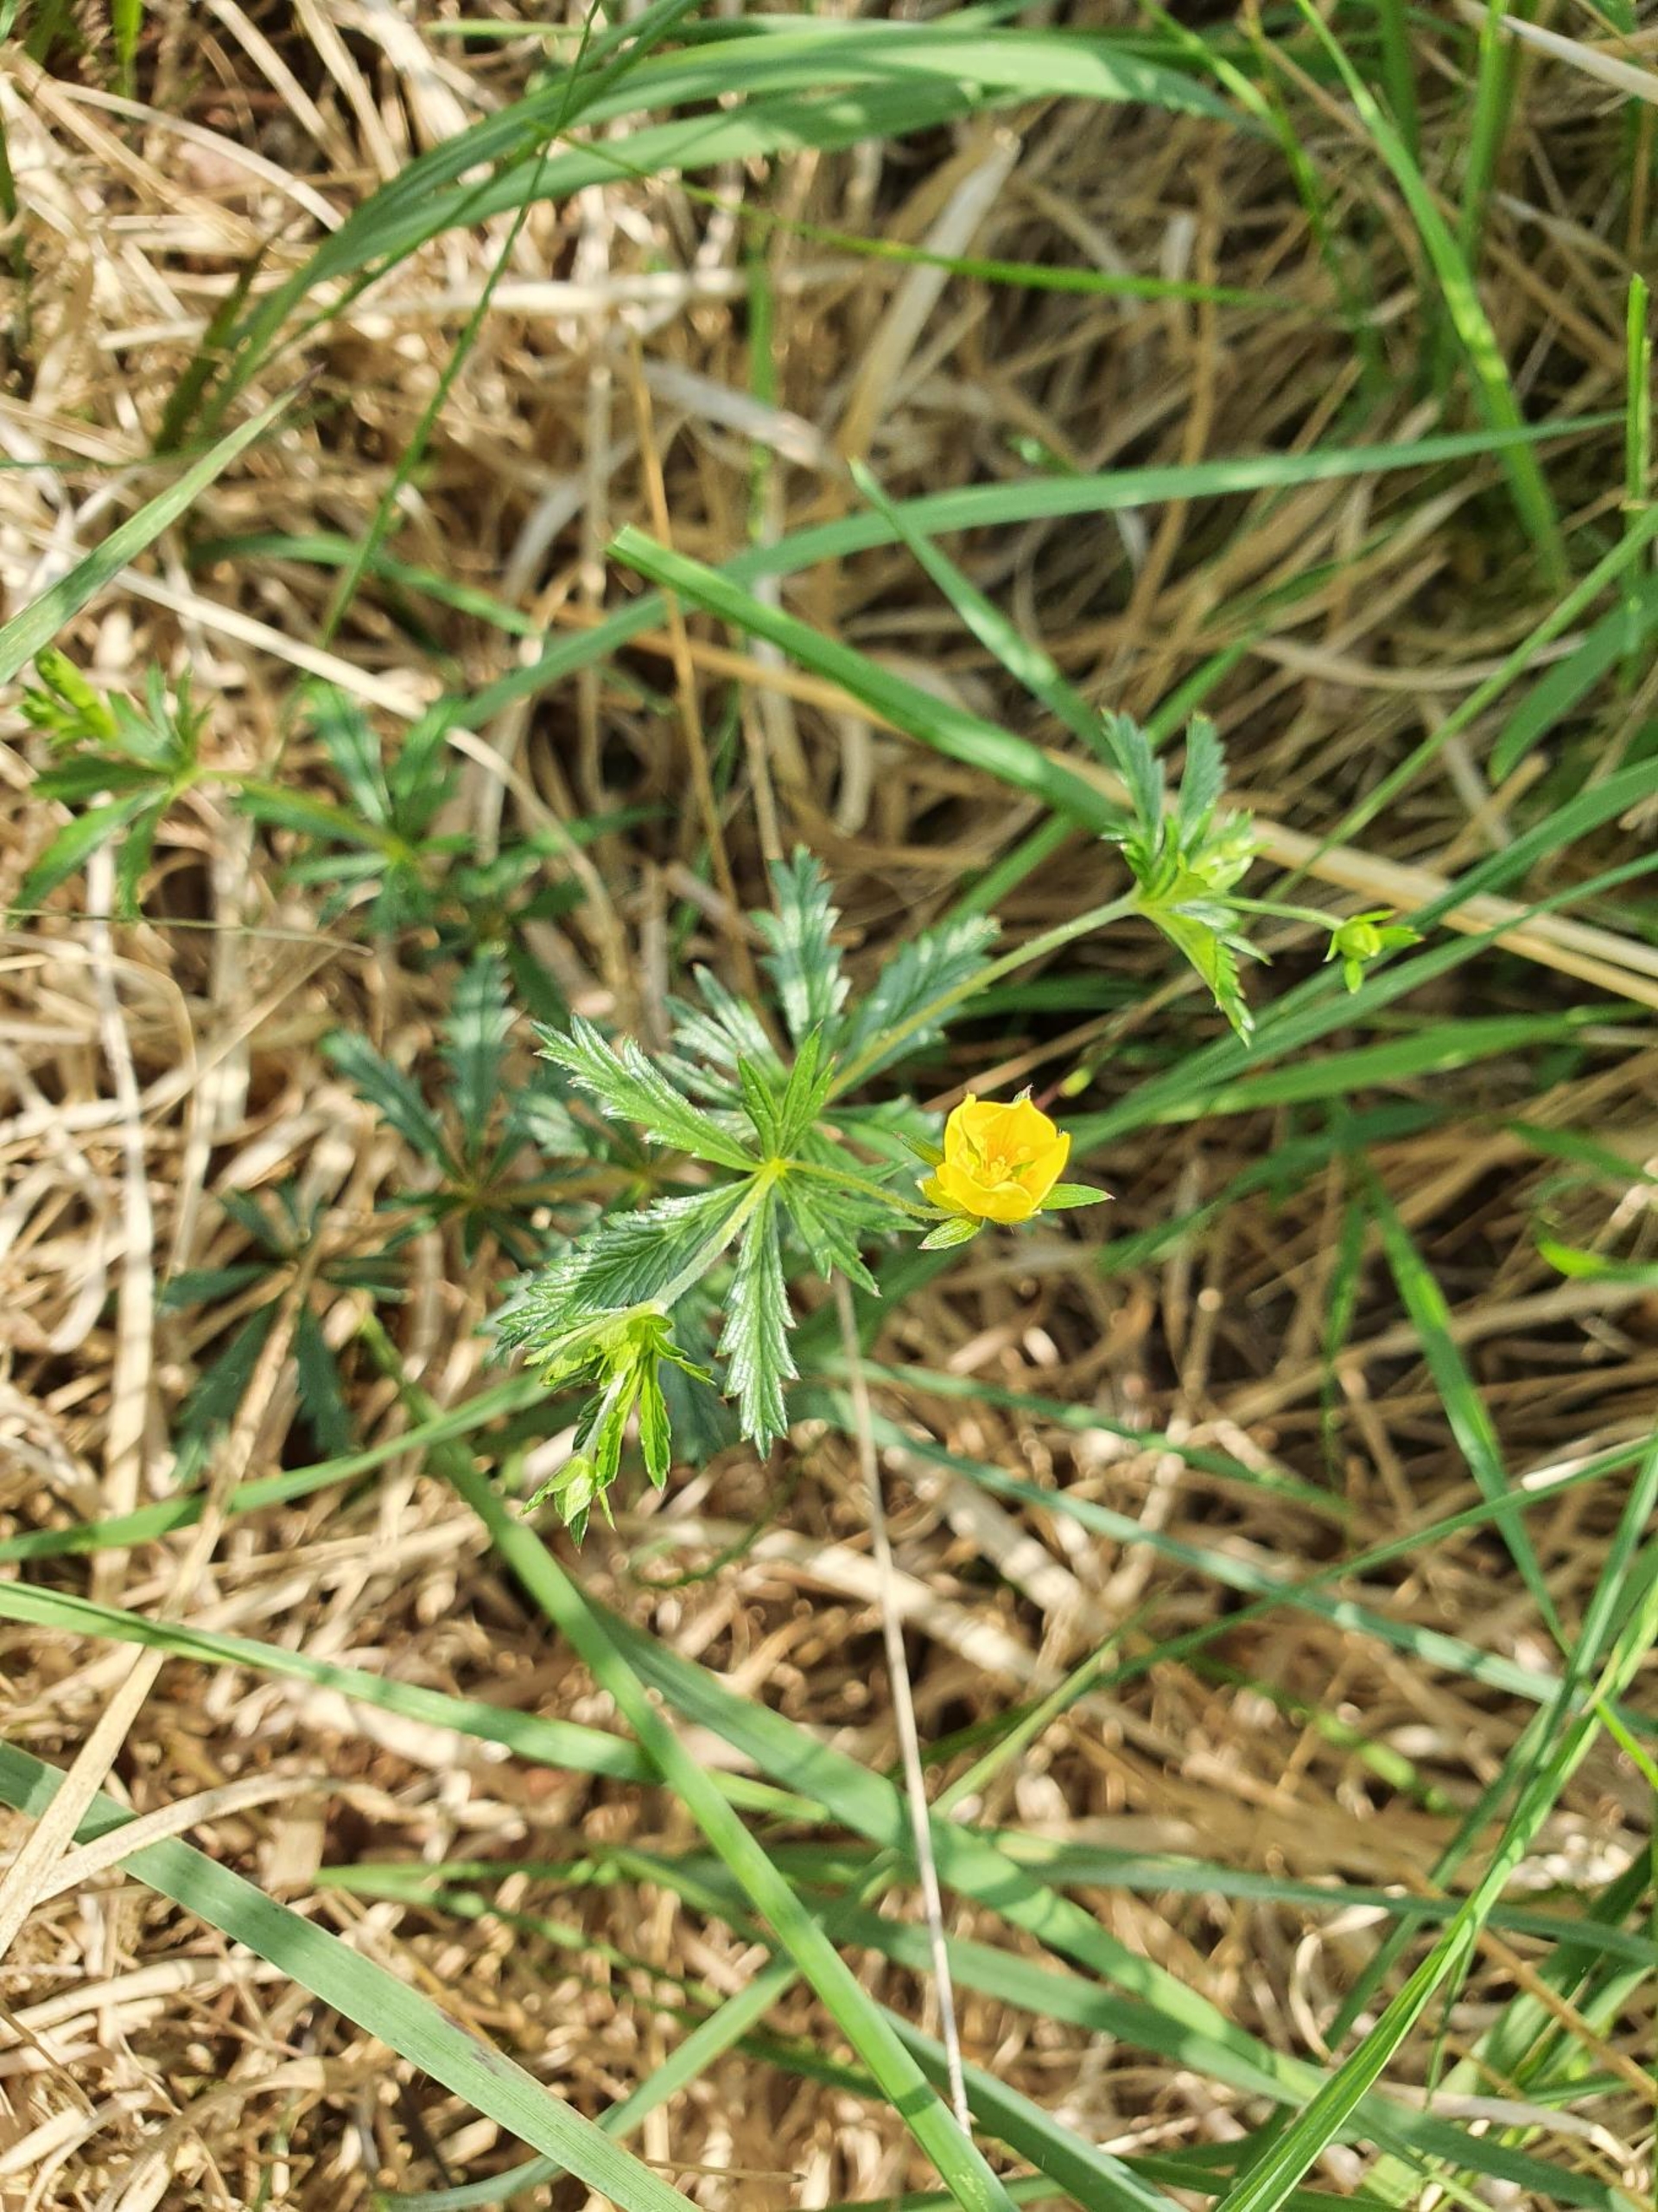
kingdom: Plantae
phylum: Tracheophyta
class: Magnoliopsida
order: Rosales
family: Rosaceae
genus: Potentilla
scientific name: Potentilla erecta
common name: Tormentil
